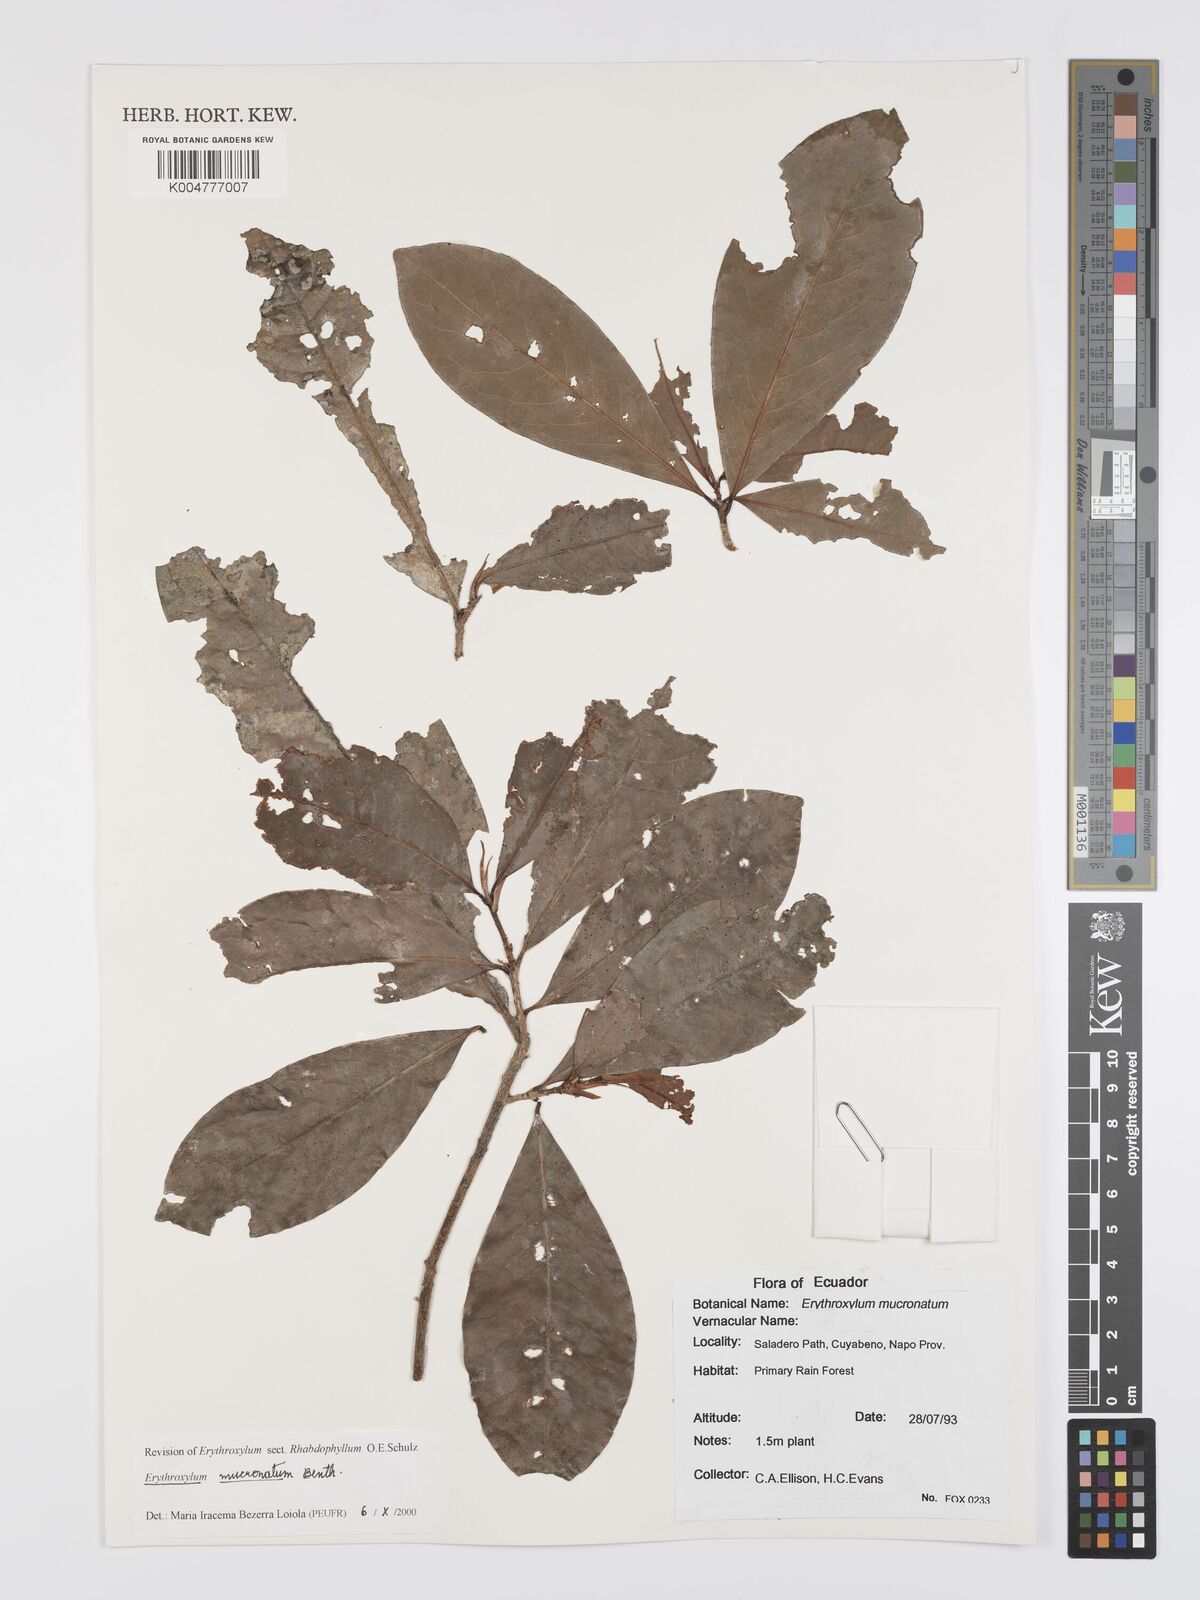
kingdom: Plantae
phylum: Tracheophyta
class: Magnoliopsida
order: Malpighiales
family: Erythroxylaceae
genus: Erythroxylum
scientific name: Erythroxylum mucronatum
